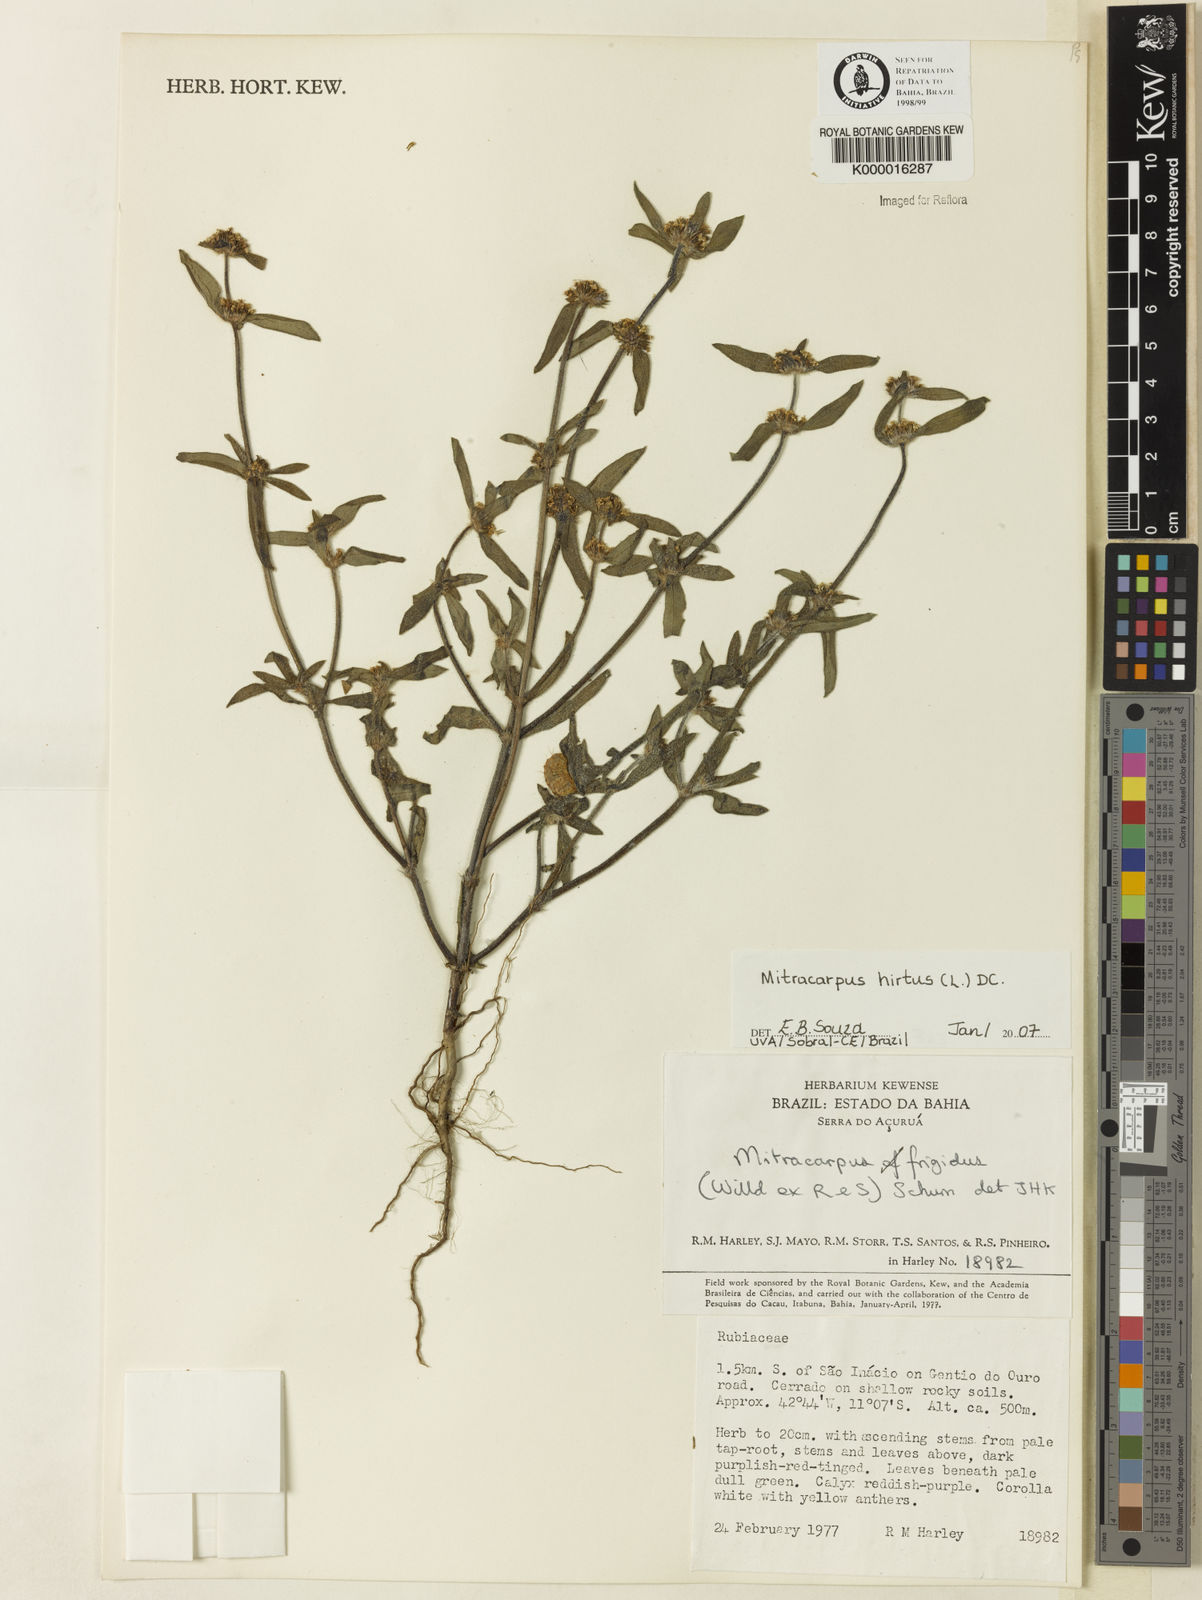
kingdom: Plantae
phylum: Tracheophyta
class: Magnoliopsida
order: Gentianales
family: Rubiaceae
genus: Mitracarpus
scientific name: Mitracarpus hirtus
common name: Tropical girdlepod
